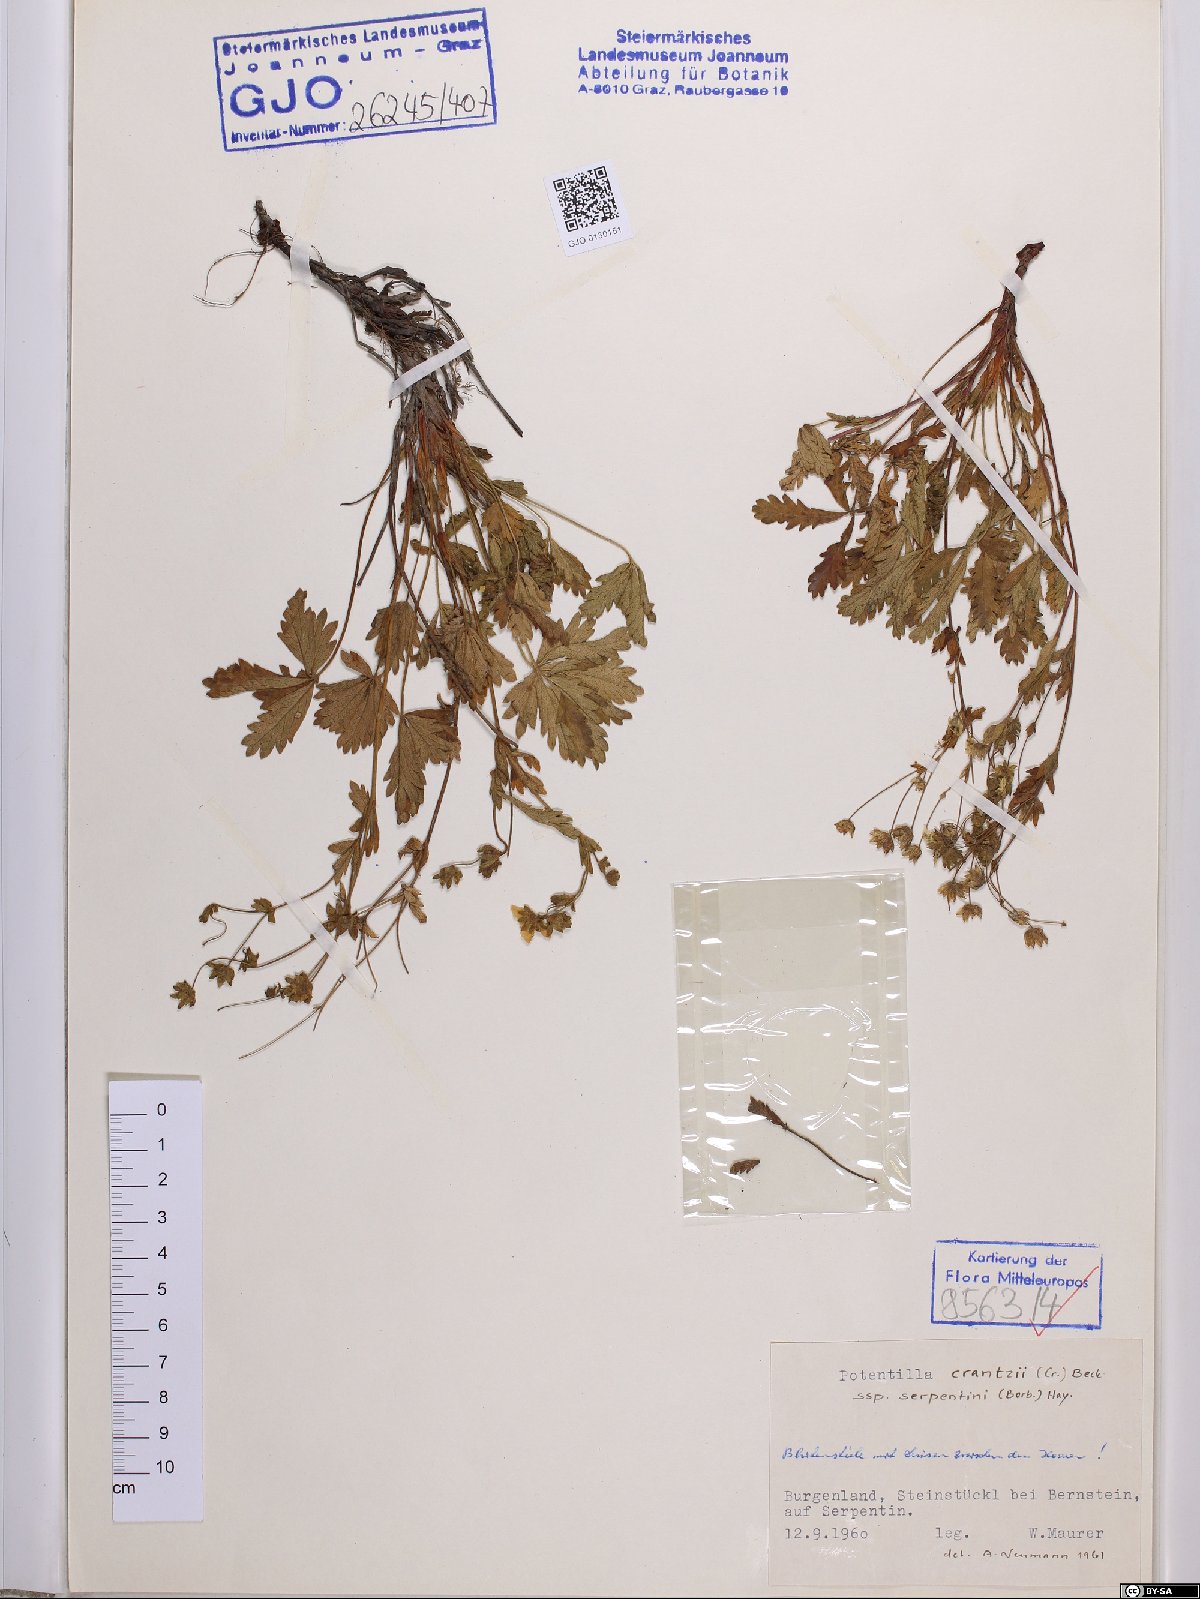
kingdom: Plantae
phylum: Tracheophyta
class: Magnoliopsida
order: Rosales
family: Rosaceae
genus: Potentilla
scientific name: Potentilla crantzii
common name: Alpine cinquefoil
